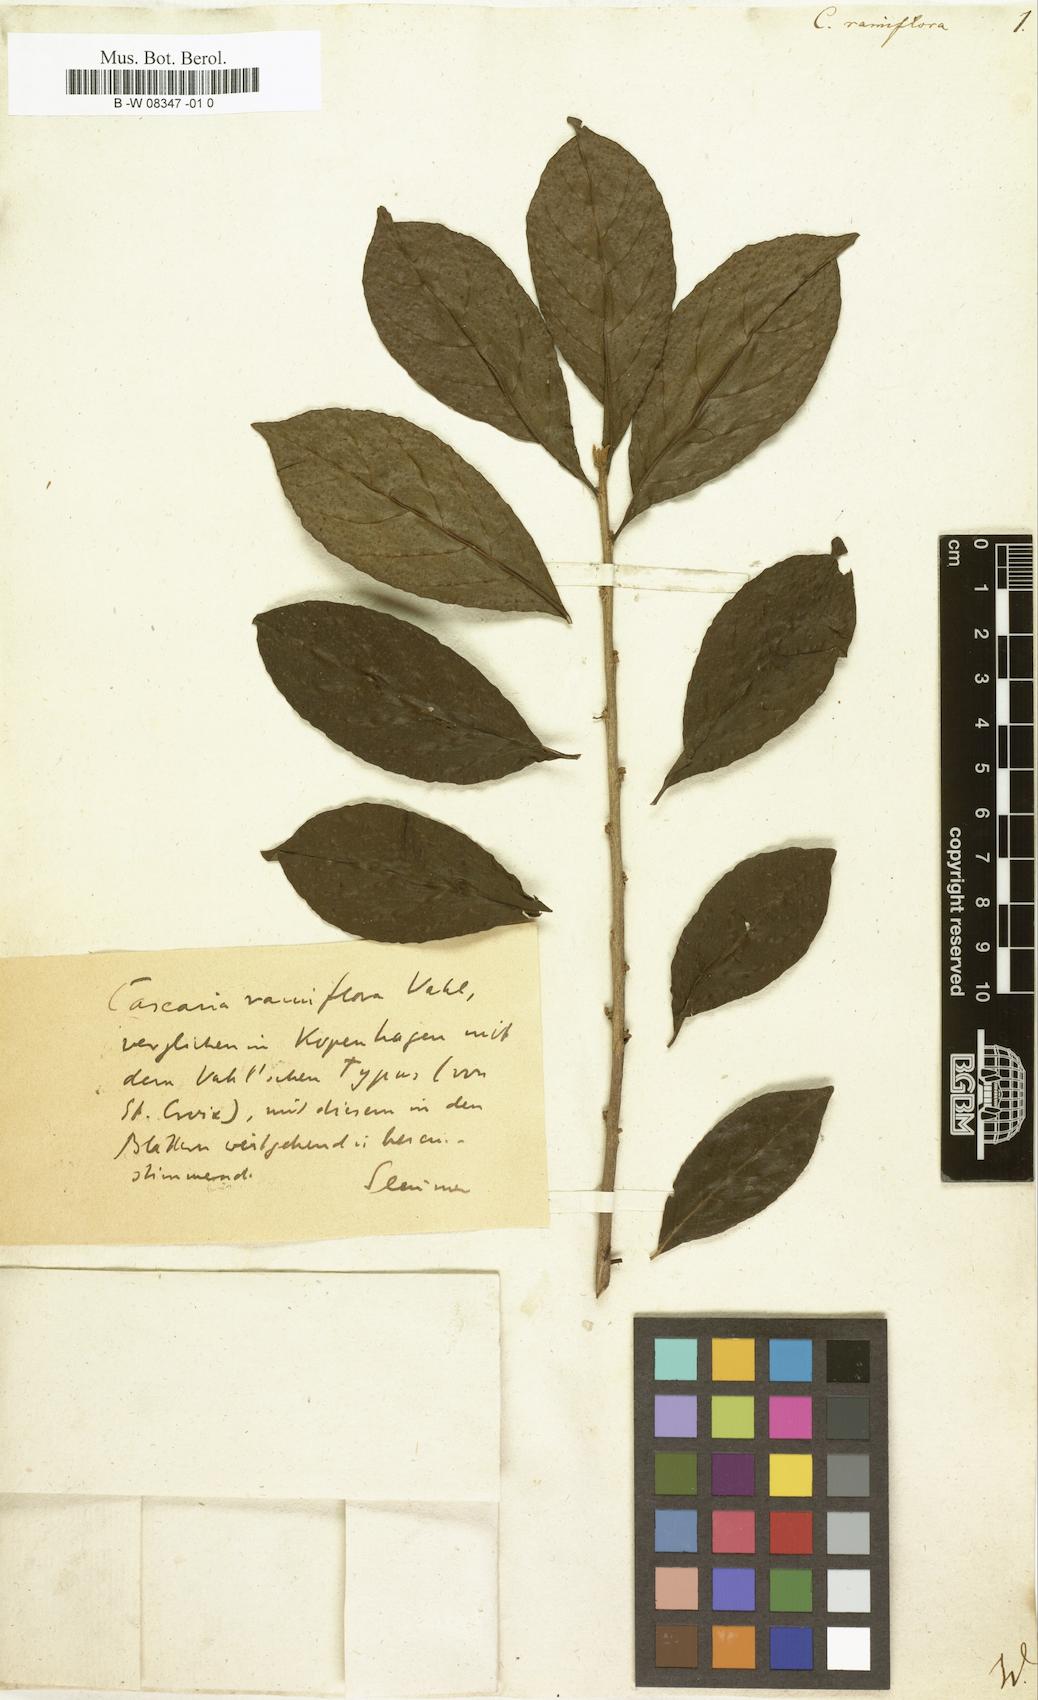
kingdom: Plantae
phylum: Tracheophyta
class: Magnoliopsida
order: Malpighiales
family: Salicaceae
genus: Casearia
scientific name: Casearia
